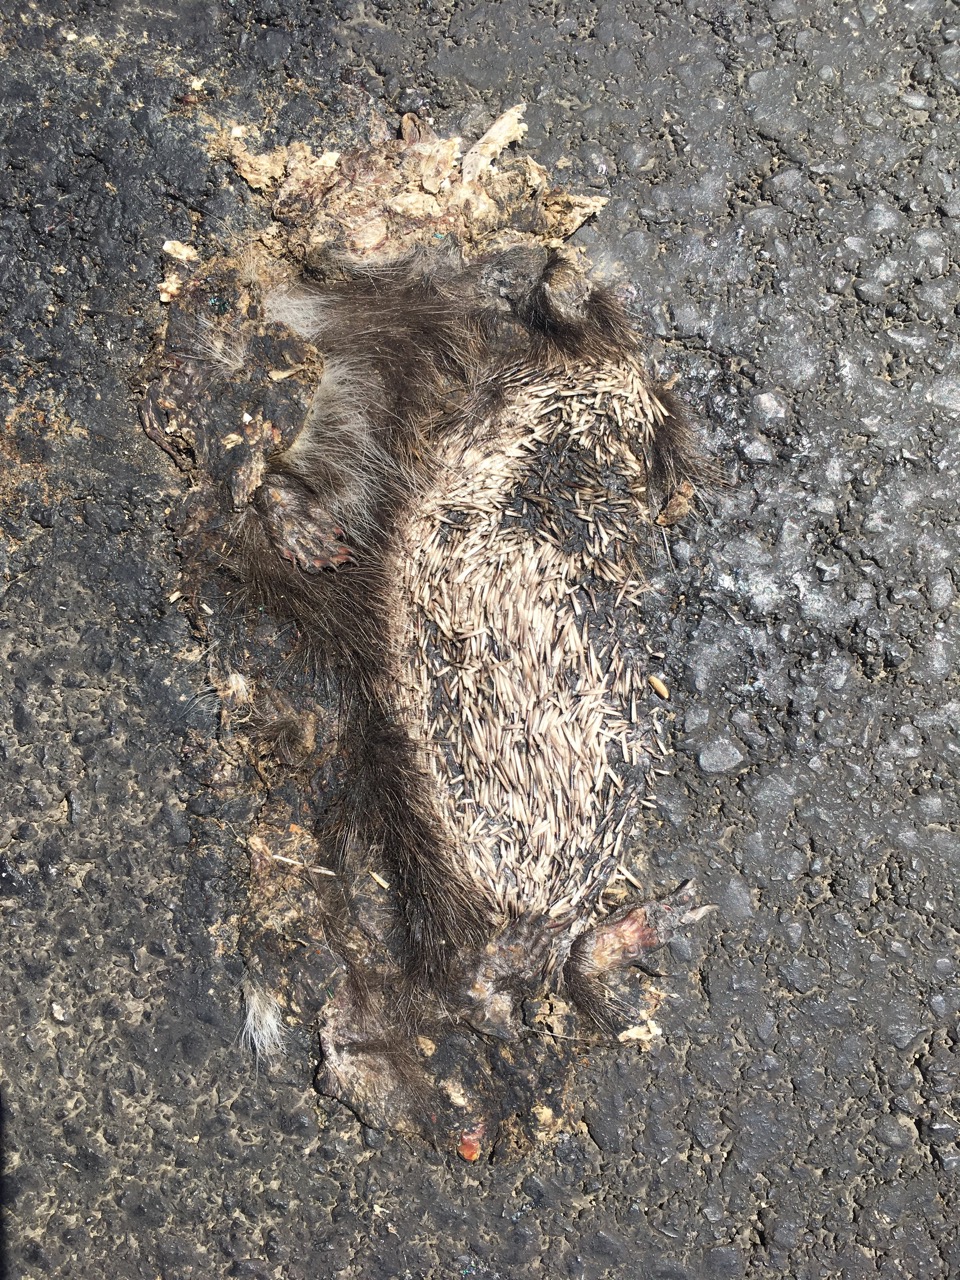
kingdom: Animalia
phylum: Chordata
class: Mammalia
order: Erinaceomorpha
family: Erinaceidae
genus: Erinaceus
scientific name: Erinaceus
